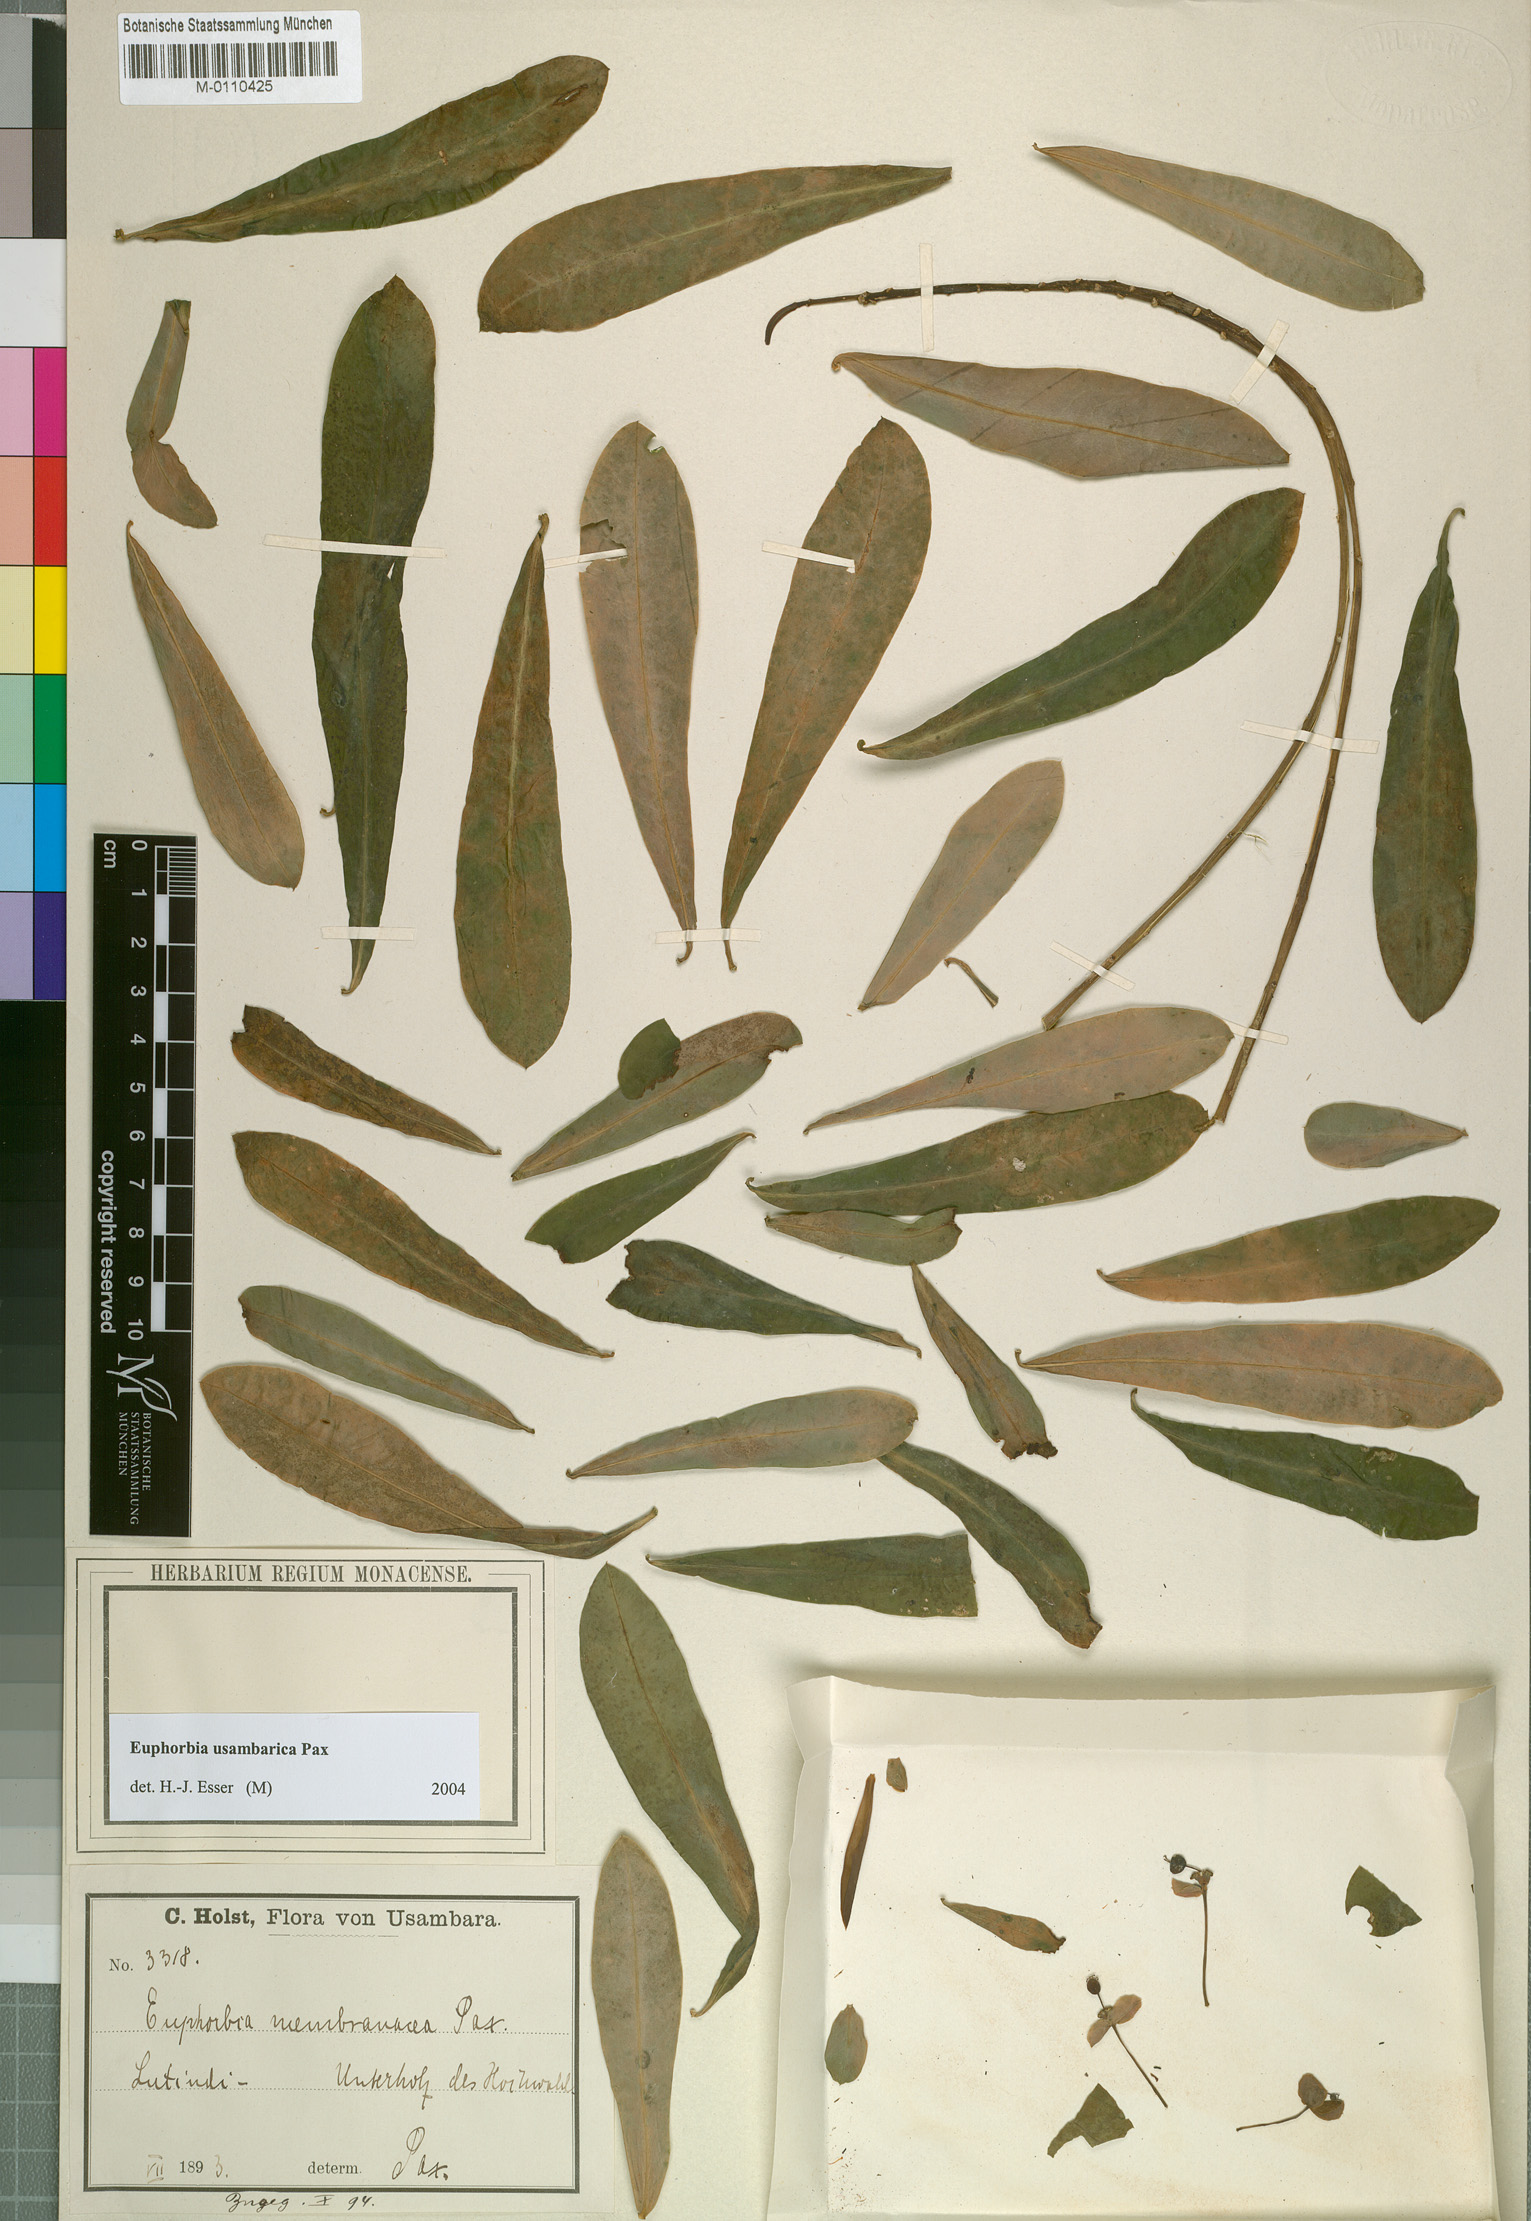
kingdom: Plantae
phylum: Tracheophyta
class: Magnoliopsida
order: Malpighiales
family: Euphorbiaceae
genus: Euphorbia
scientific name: Euphorbia usambarica
